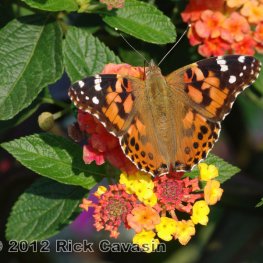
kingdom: Animalia
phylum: Arthropoda
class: Insecta
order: Lepidoptera
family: Nymphalidae
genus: Vanessa
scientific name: Vanessa cardui
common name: Painted Lady
